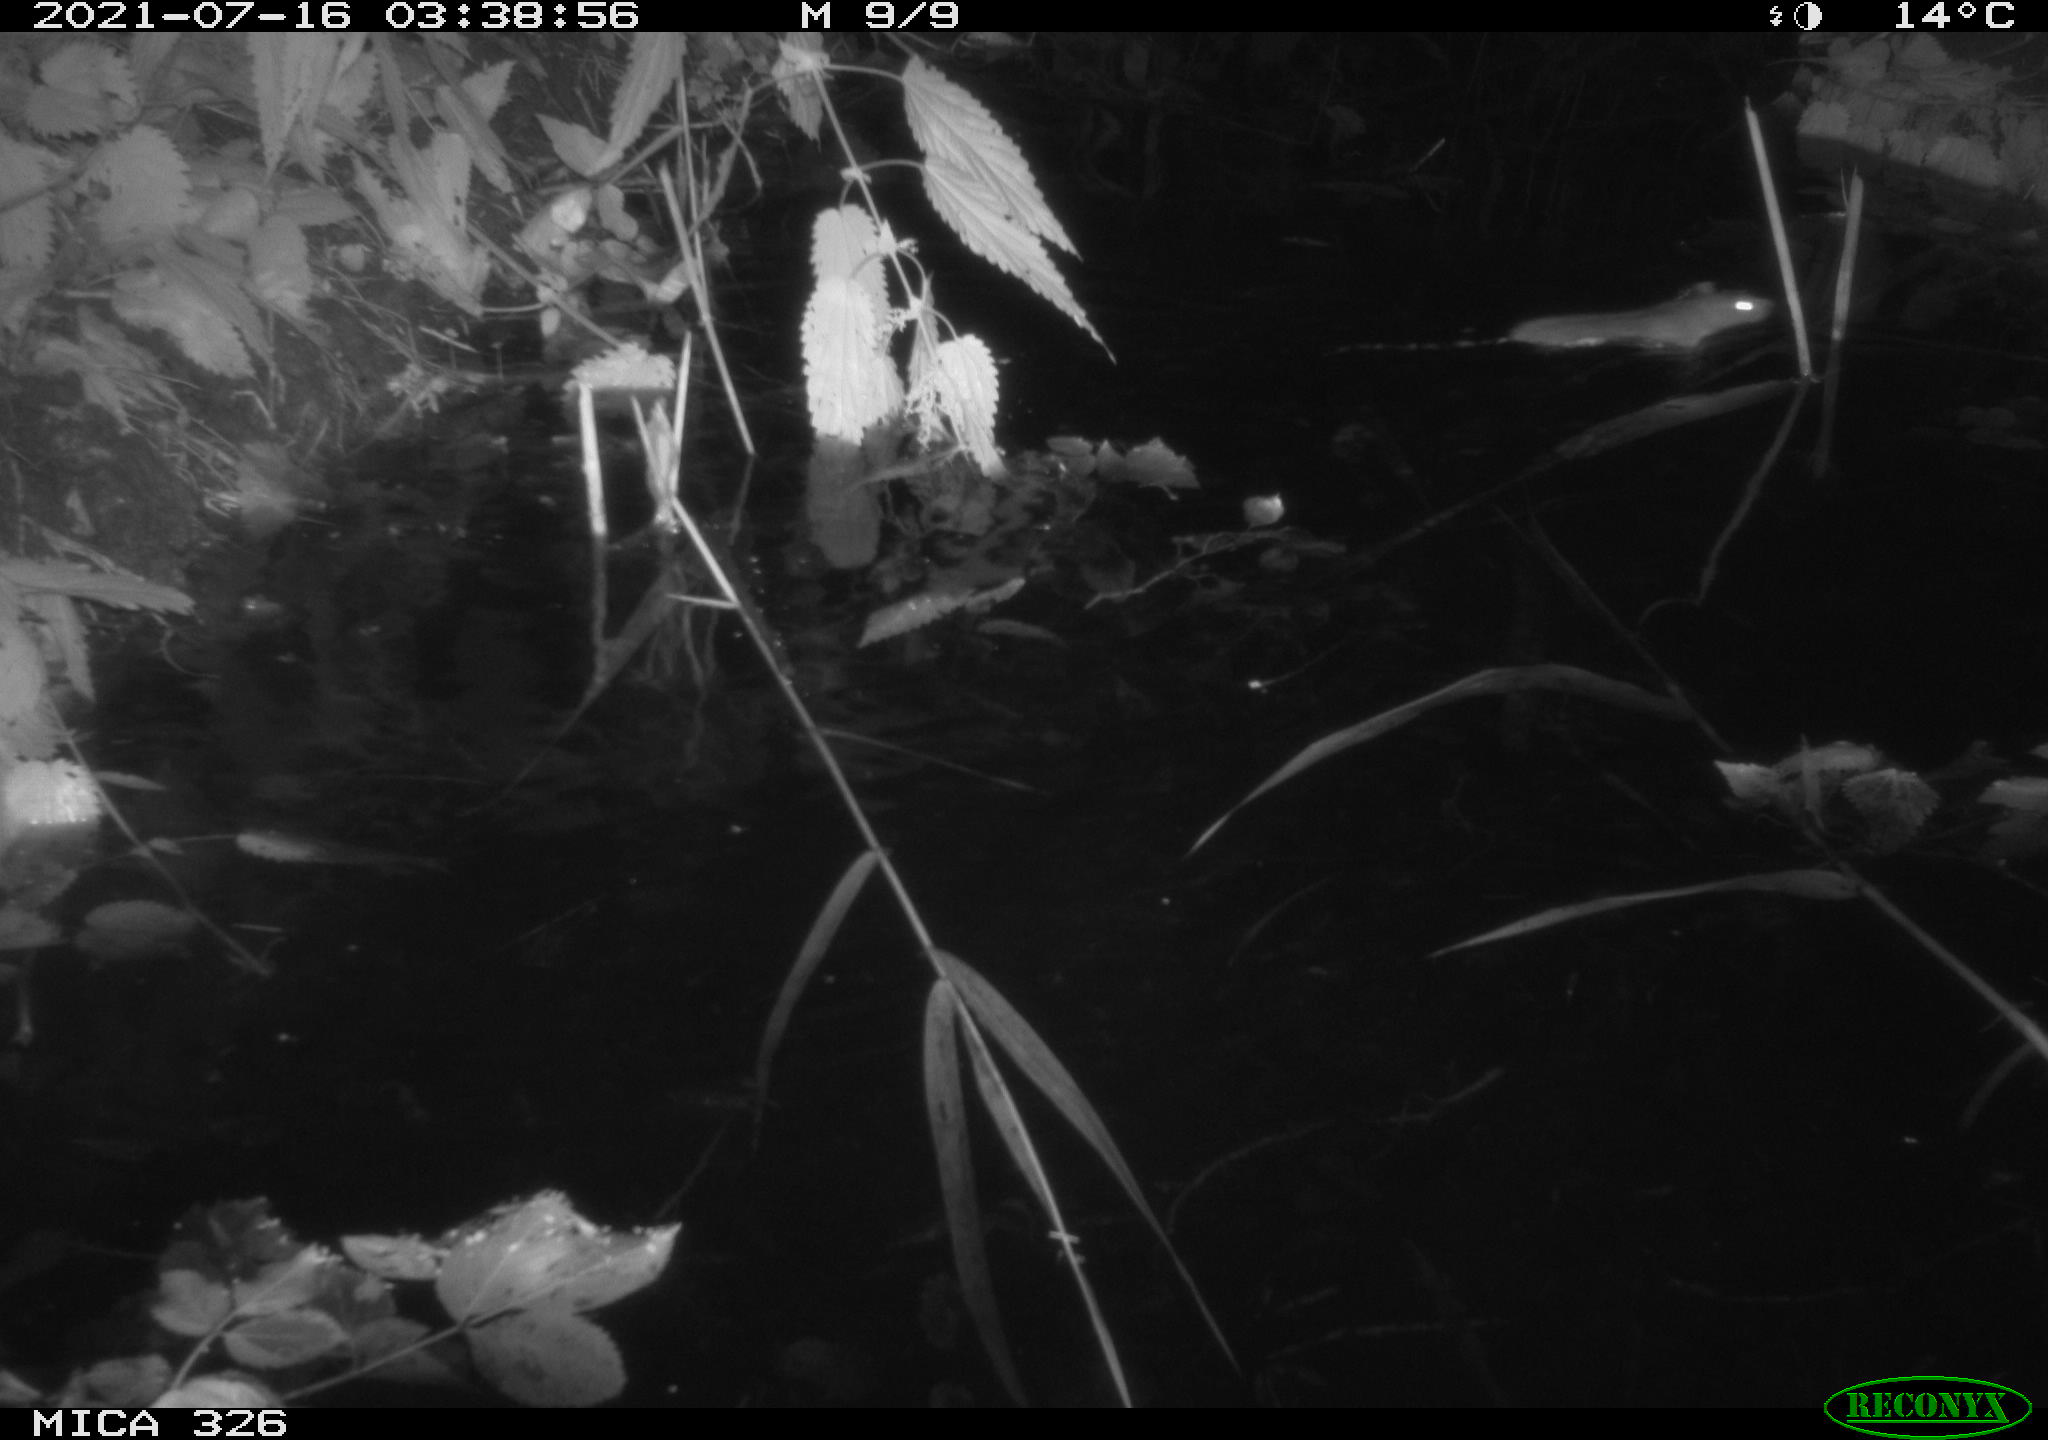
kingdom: Animalia
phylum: Chordata
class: Mammalia
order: Rodentia
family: Muridae
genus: Rattus
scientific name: Rattus norvegicus
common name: Brown rat
